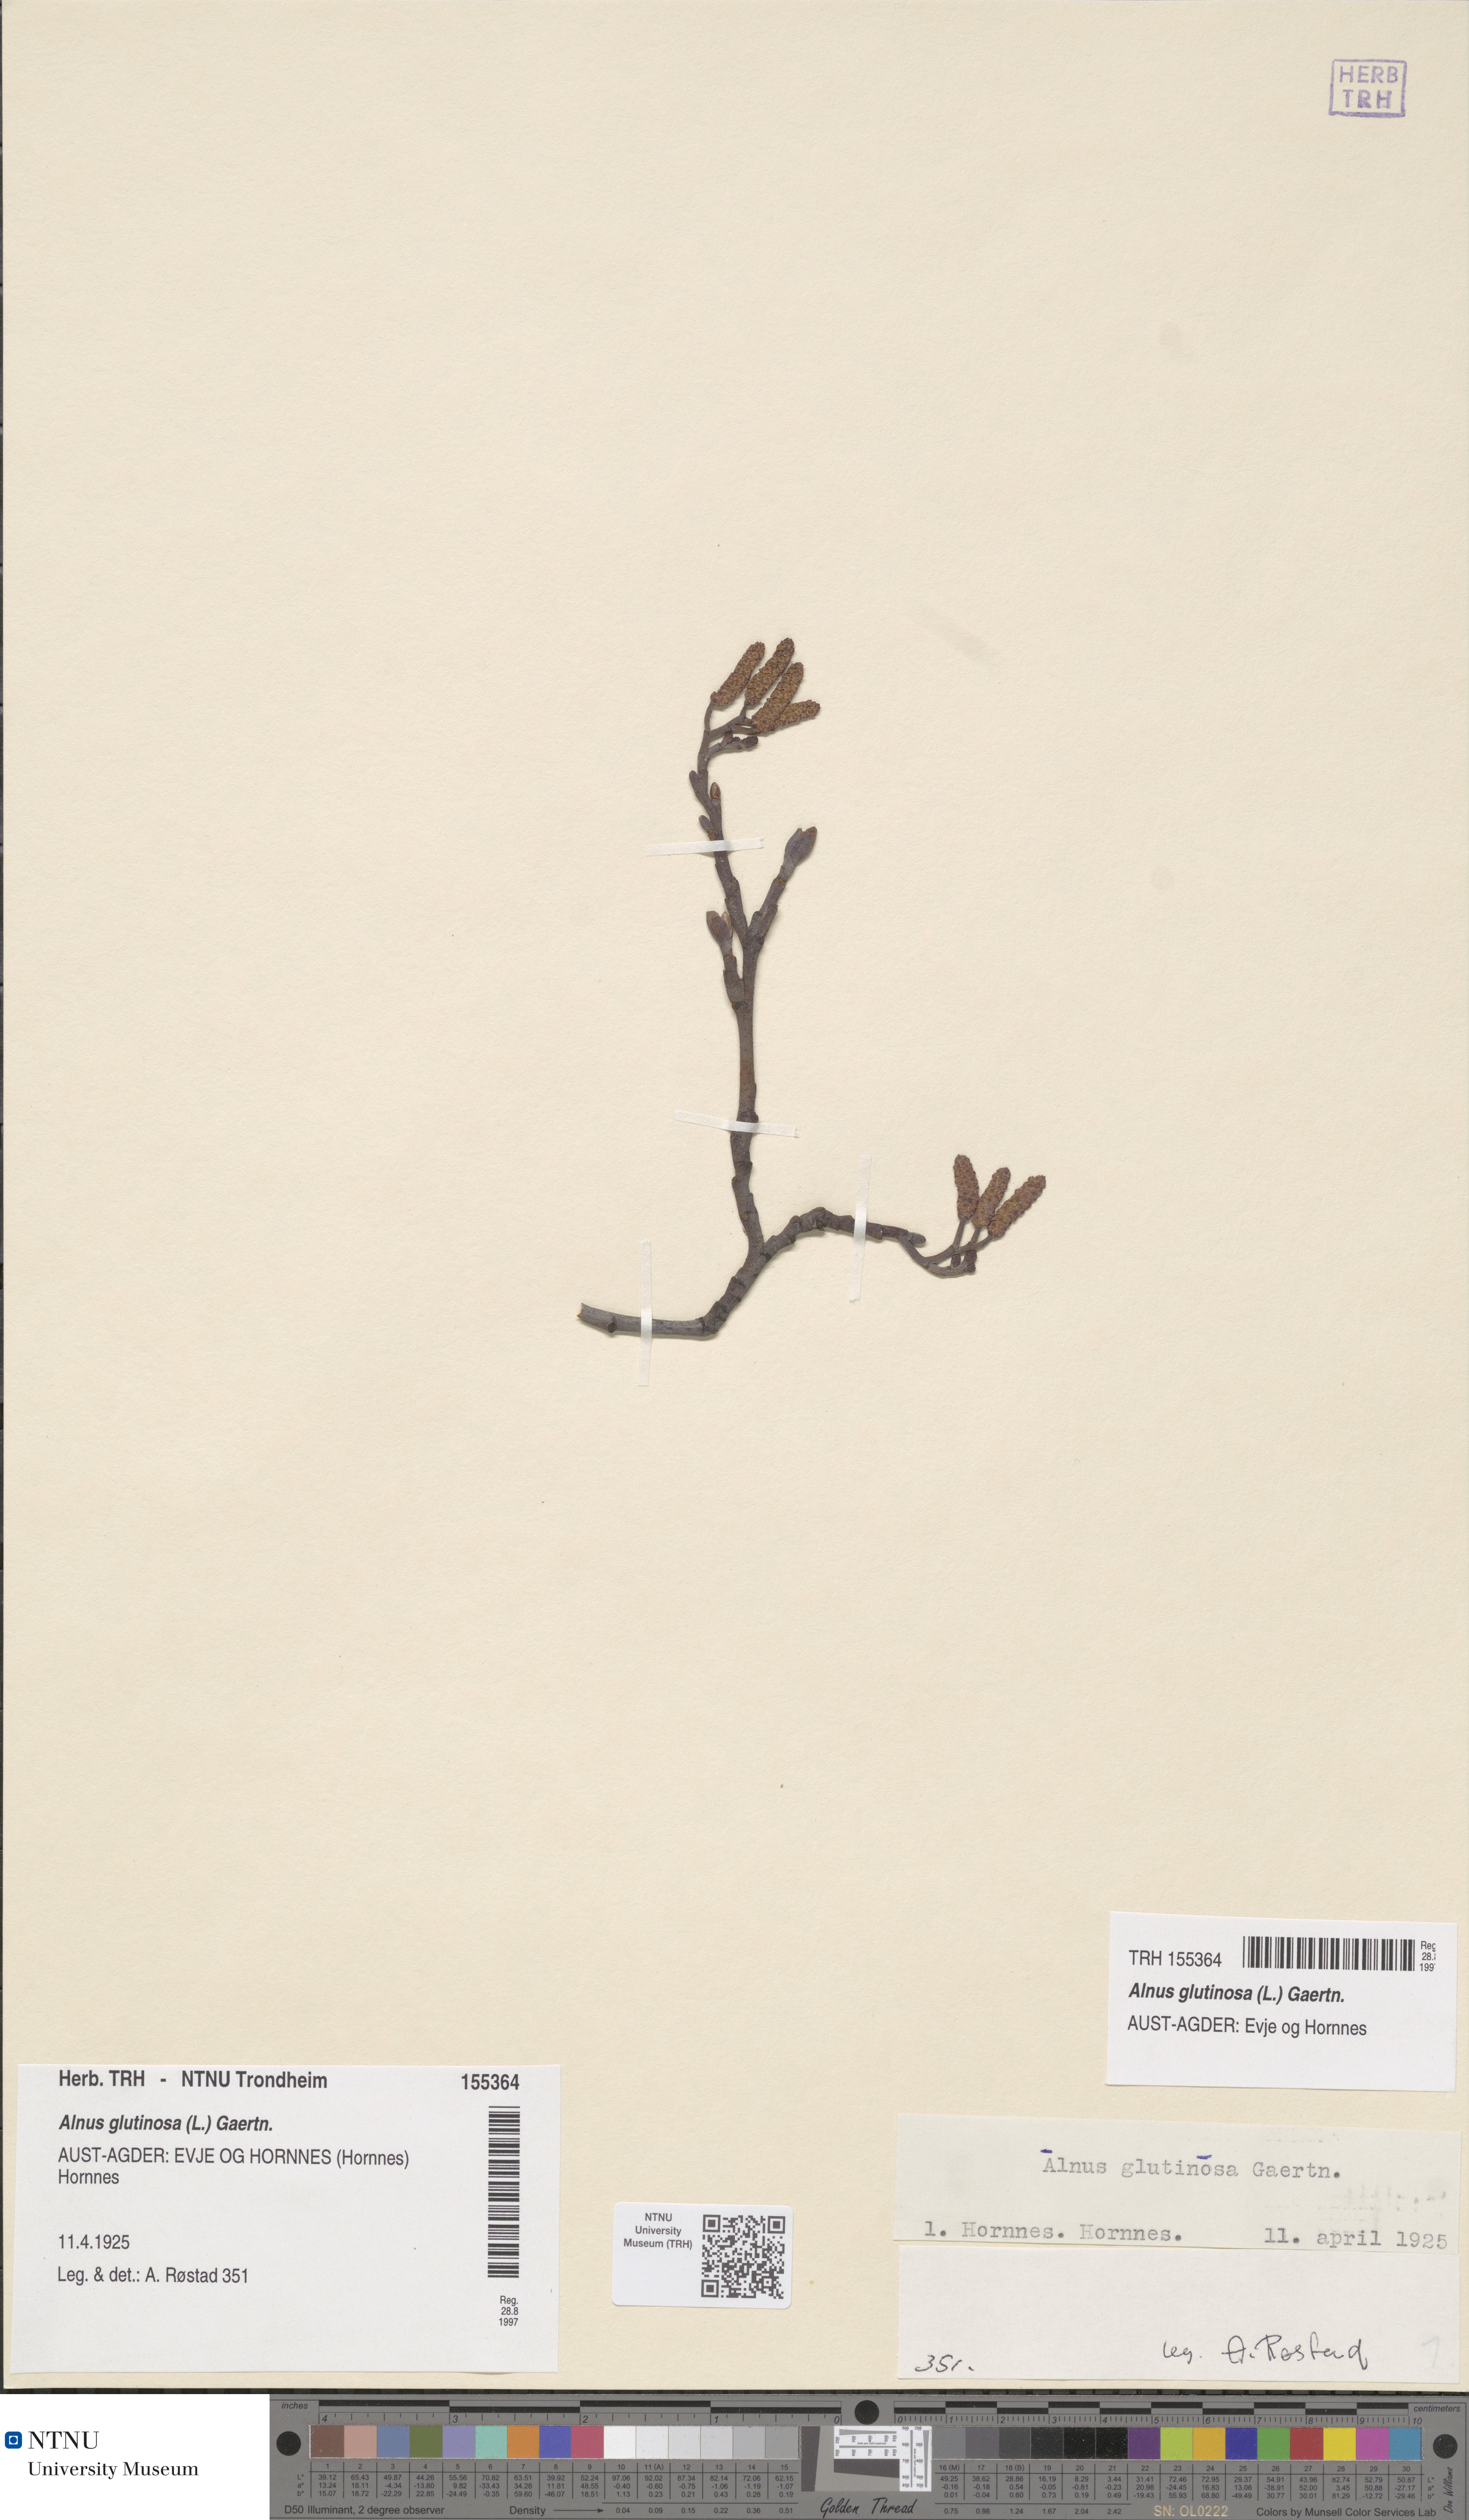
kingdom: Plantae
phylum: Tracheophyta
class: Magnoliopsida
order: Fagales
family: Betulaceae
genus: Alnus
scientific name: Alnus glutinosa
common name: Black alder
